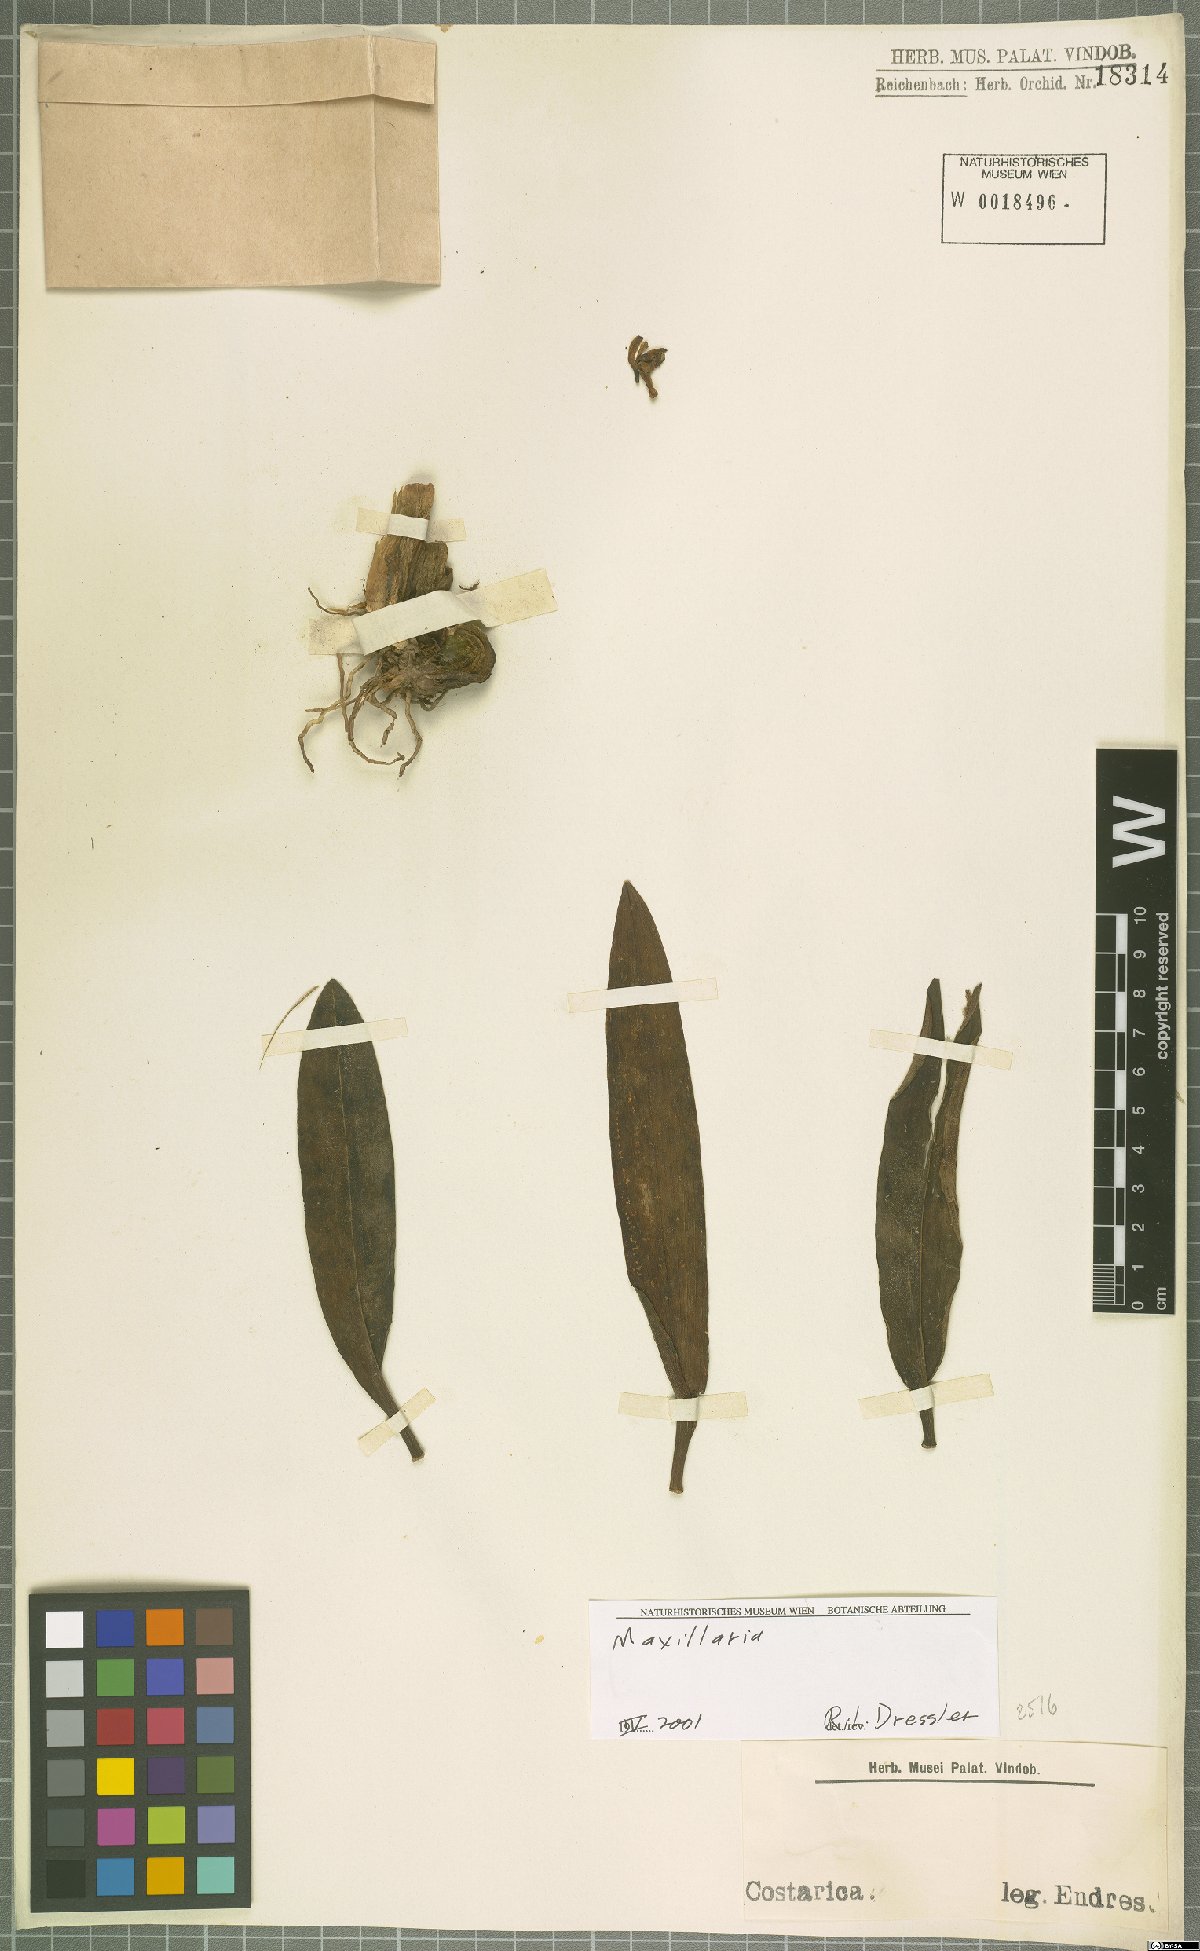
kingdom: Plantae
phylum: Tracheophyta
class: Liliopsida
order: Asparagales
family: Orchidaceae
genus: Maxillaria
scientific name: Maxillaria
